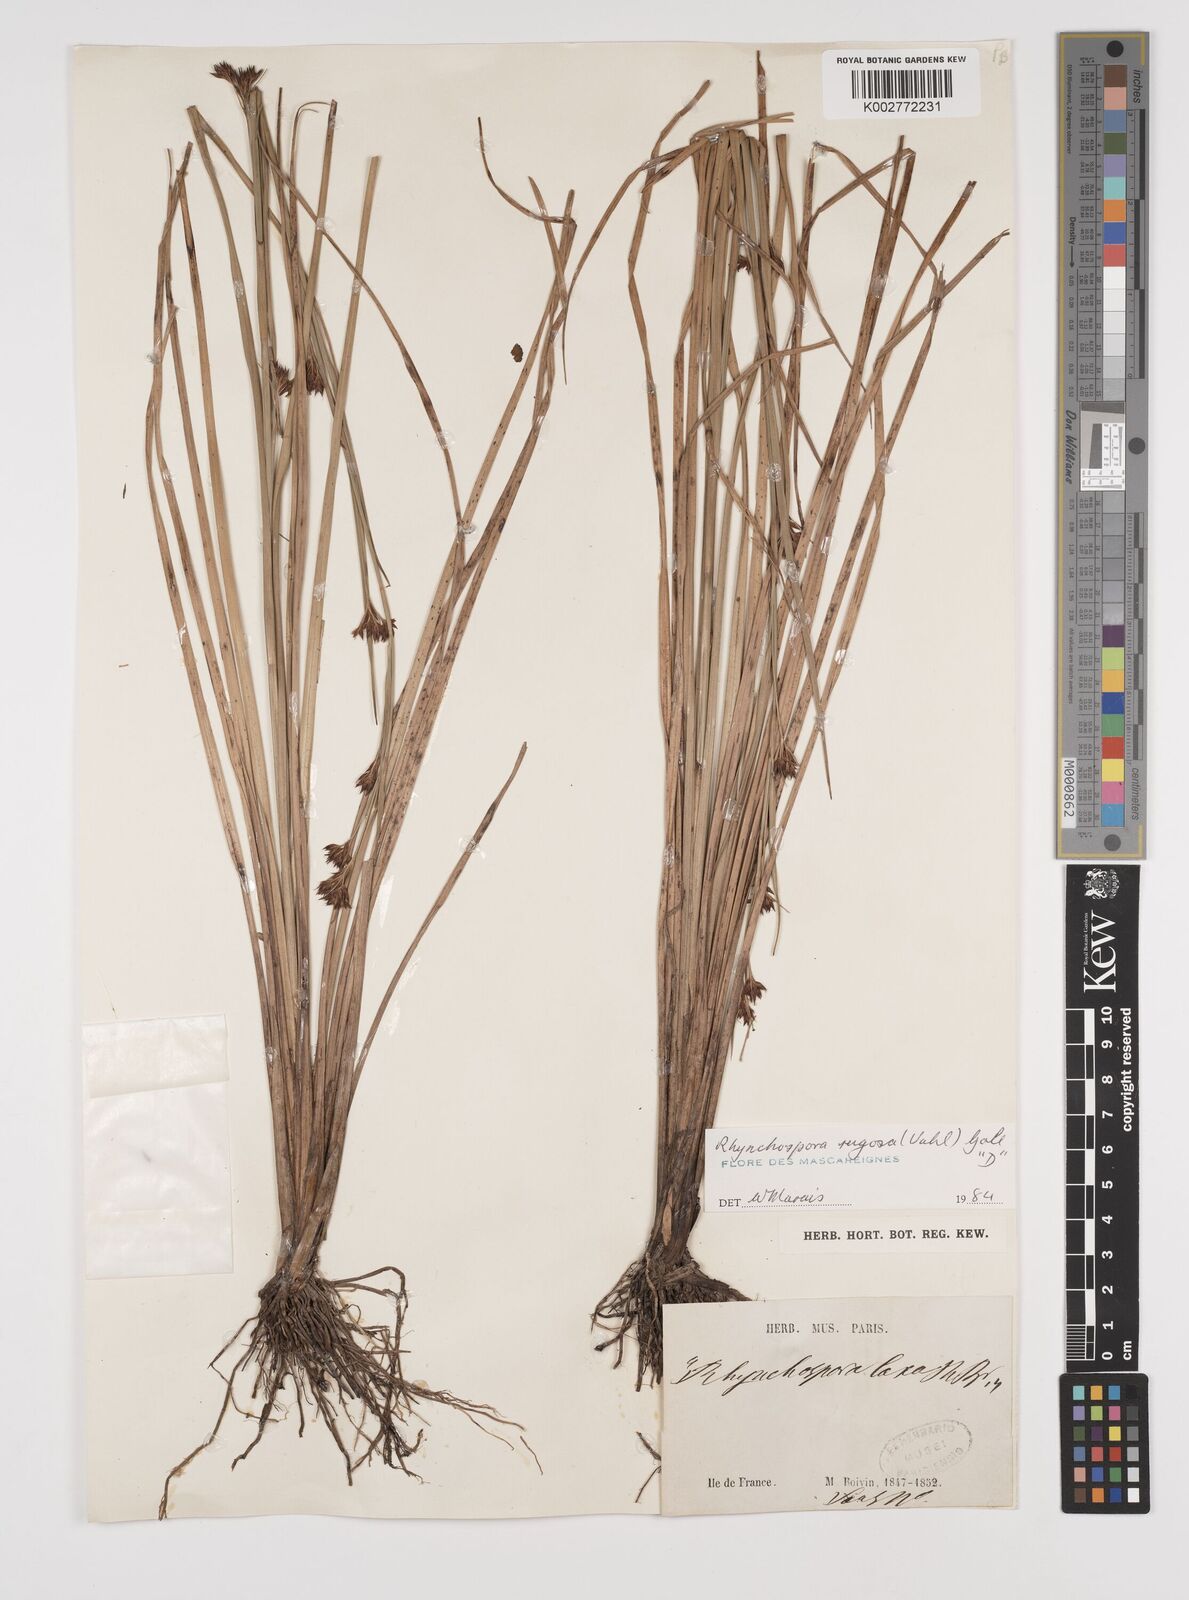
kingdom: Plantae
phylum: Tracheophyta
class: Liliopsida
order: Poales
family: Cyperaceae
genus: Rhynchospora
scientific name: Rhynchospora rugosa
